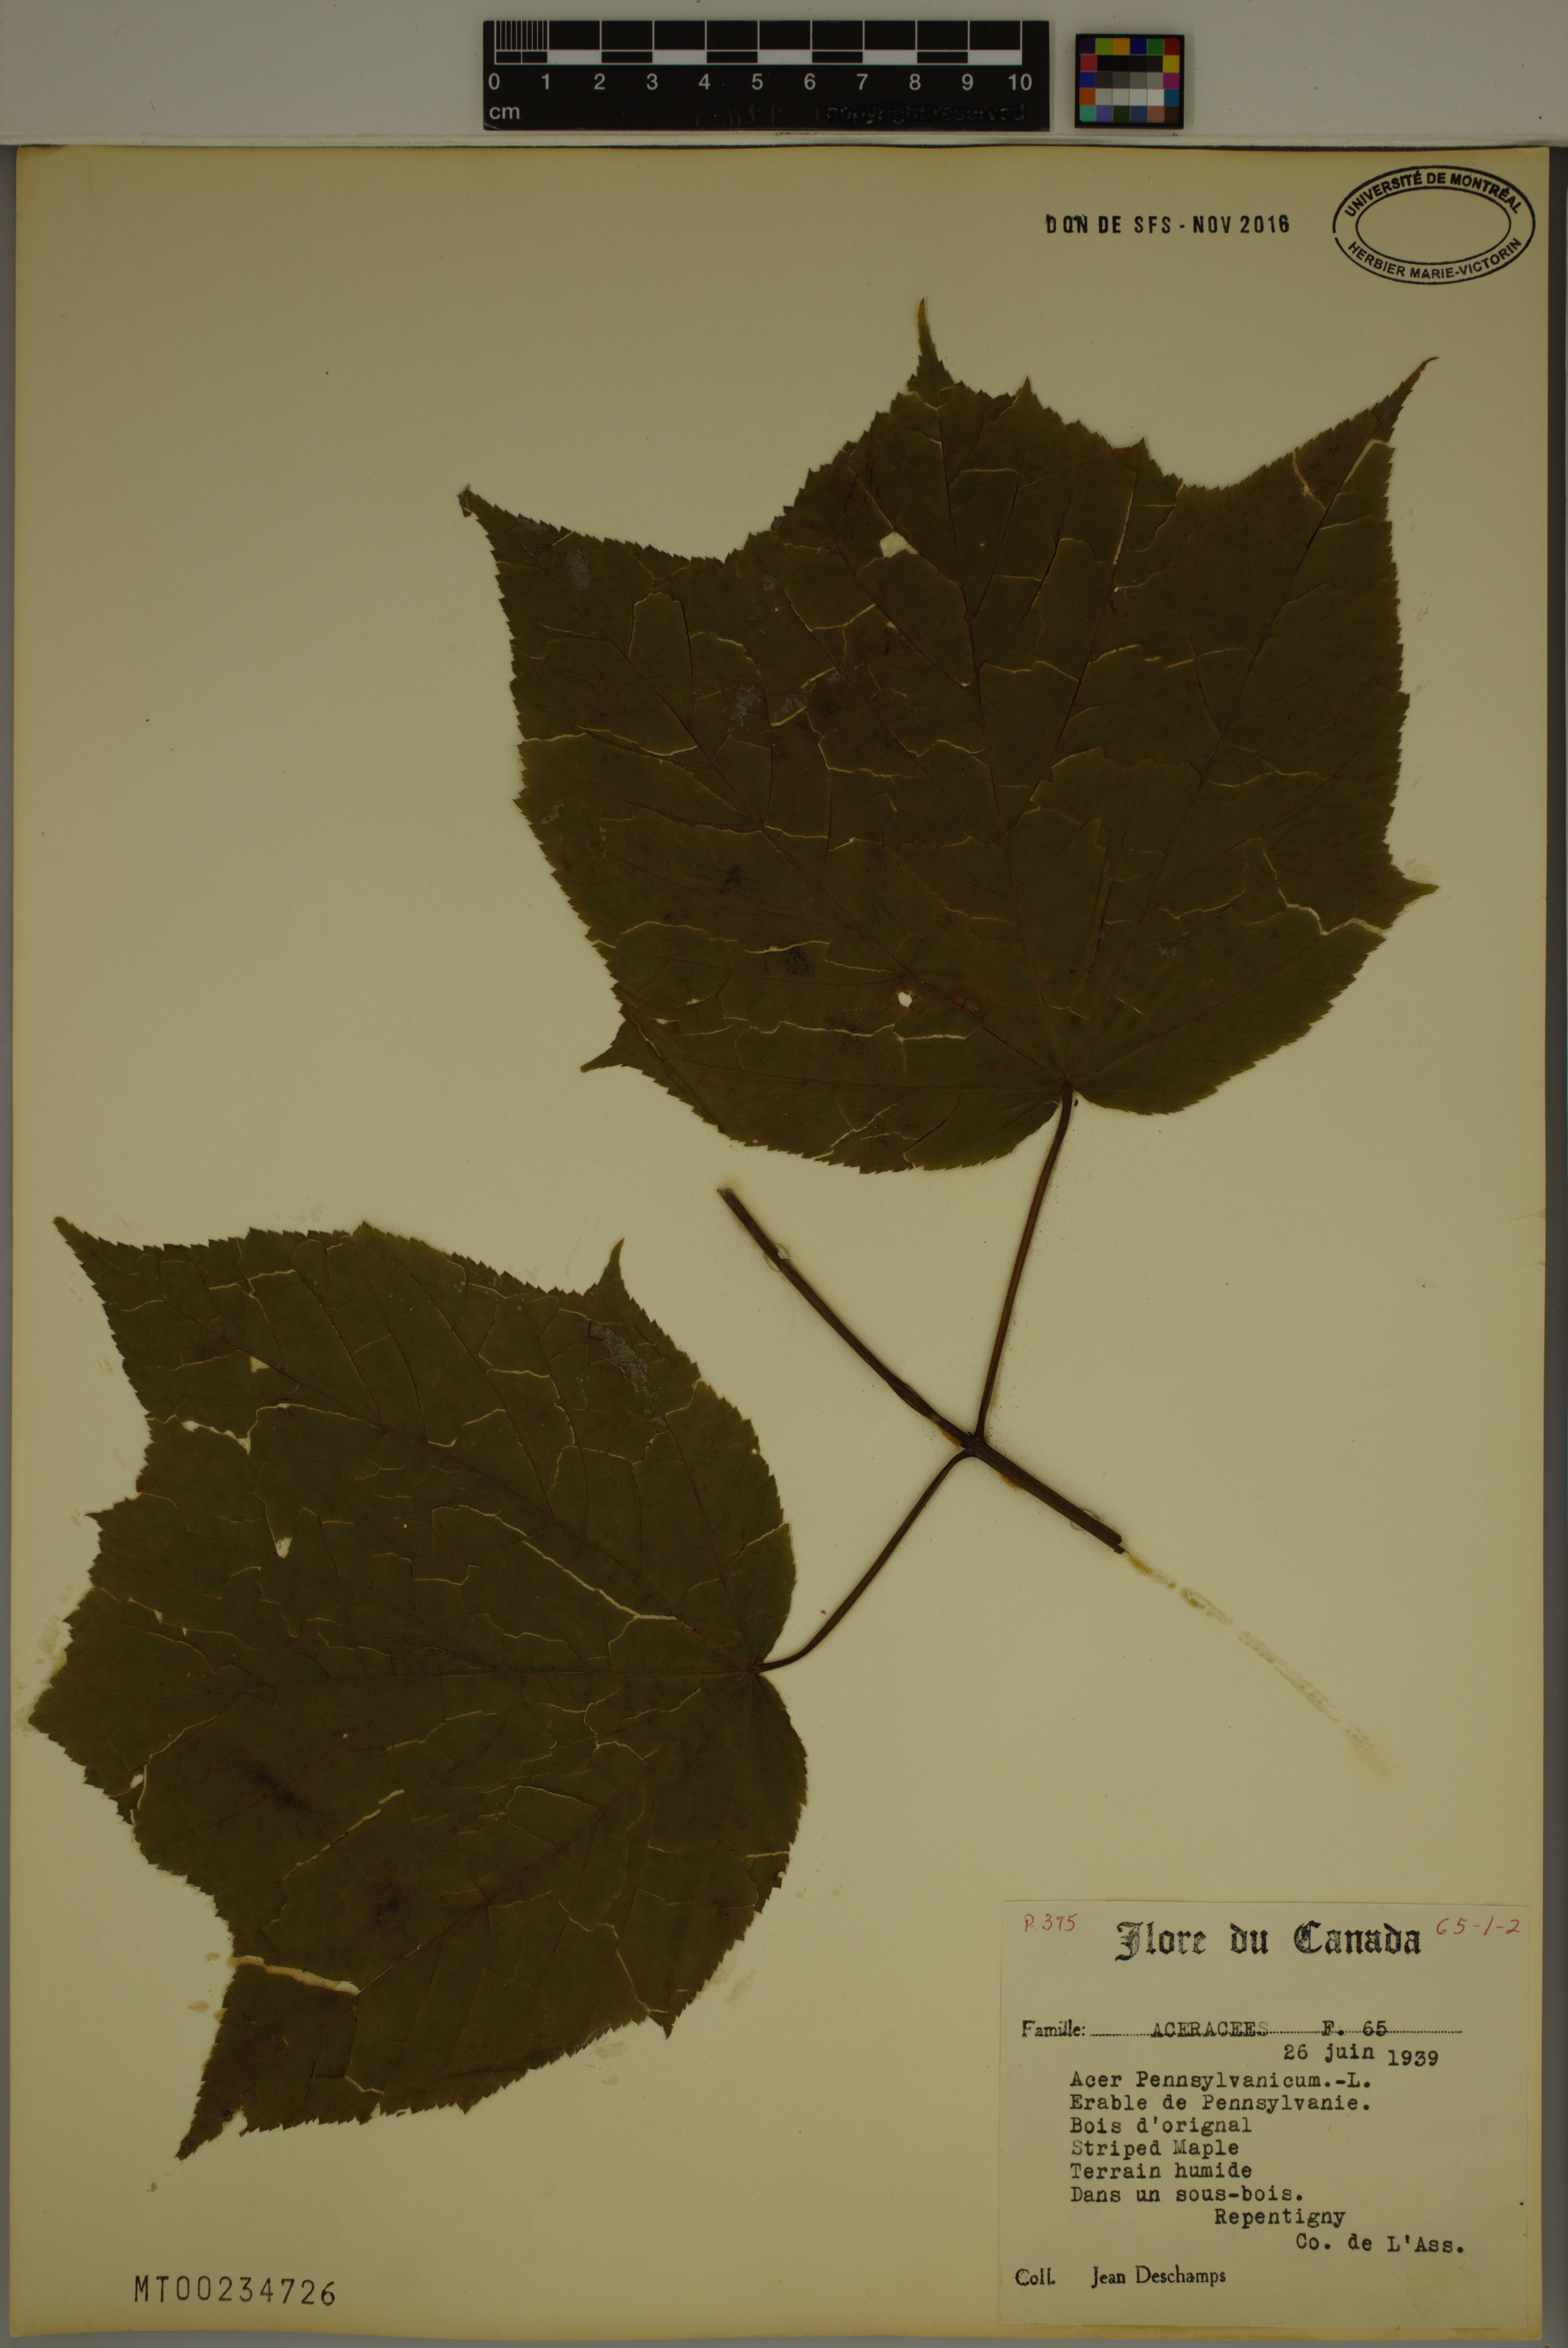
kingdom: Plantae
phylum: Tracheophyta
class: Magnoliopsida
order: Sapindales
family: Sapindaceae
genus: Acer
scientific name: Acer pensylvanicum
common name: Moosewood
